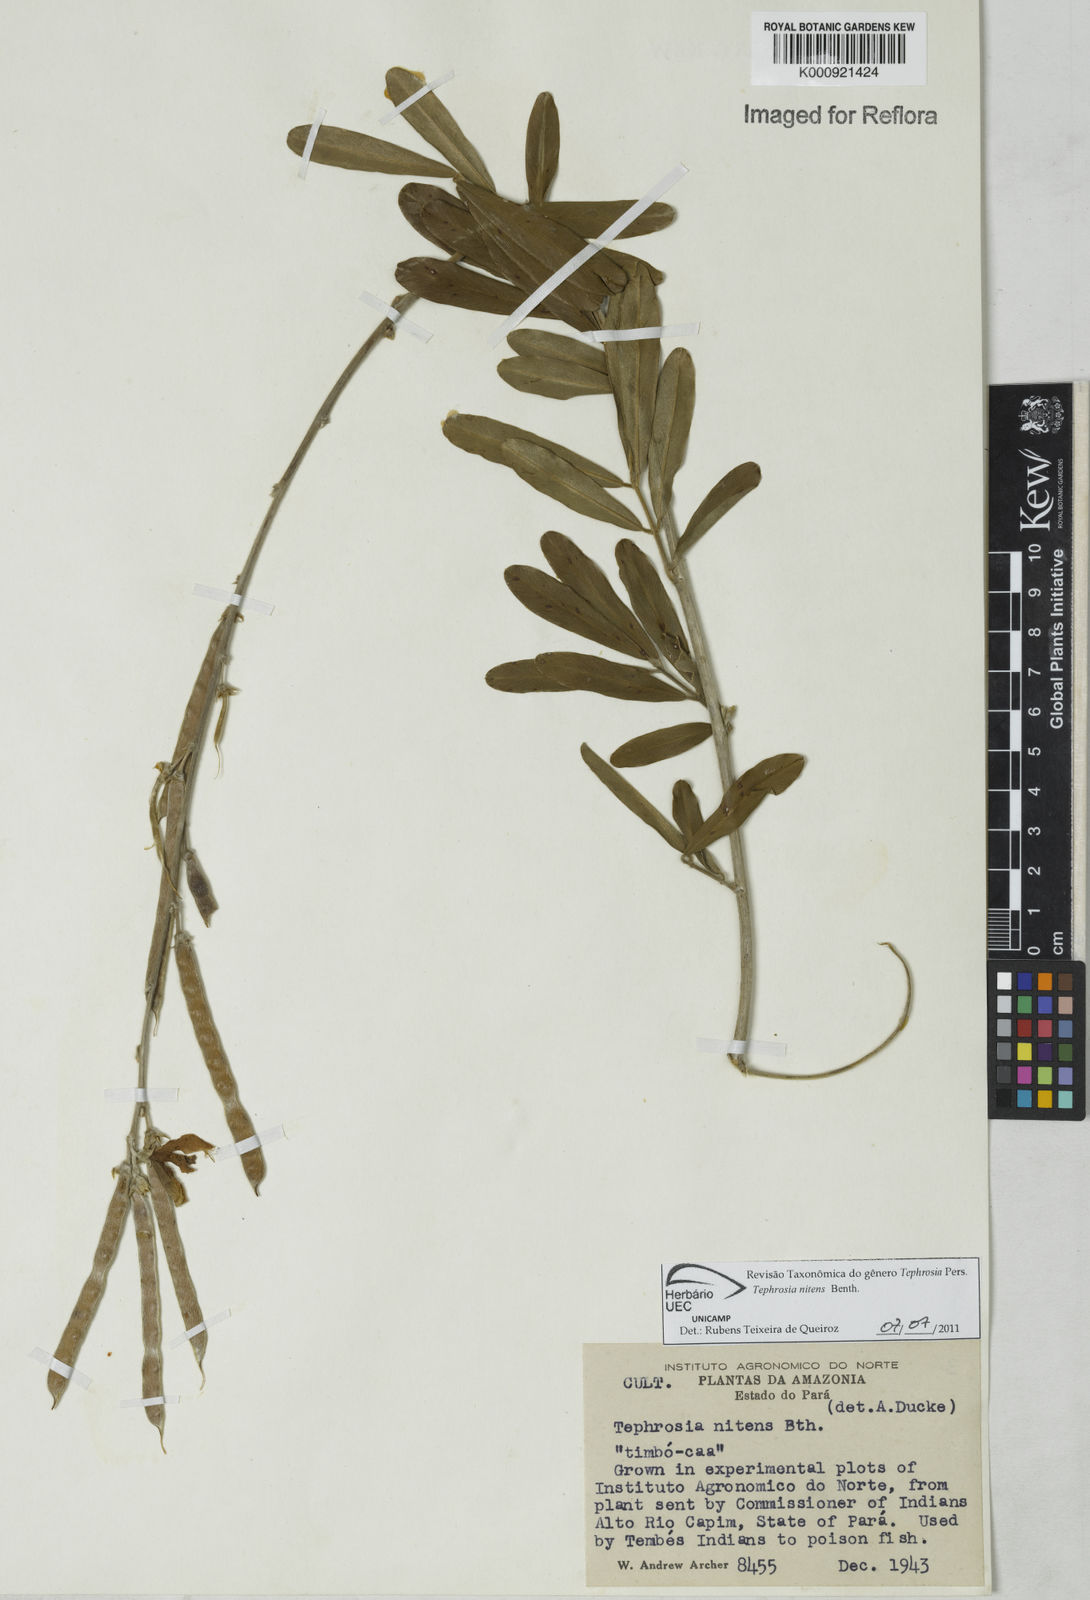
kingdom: Plantae
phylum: Tracheophyta
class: Magnoliopsida
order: Fabales
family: Fabaceae
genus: Tephrosia
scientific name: Tephrosia nitens
